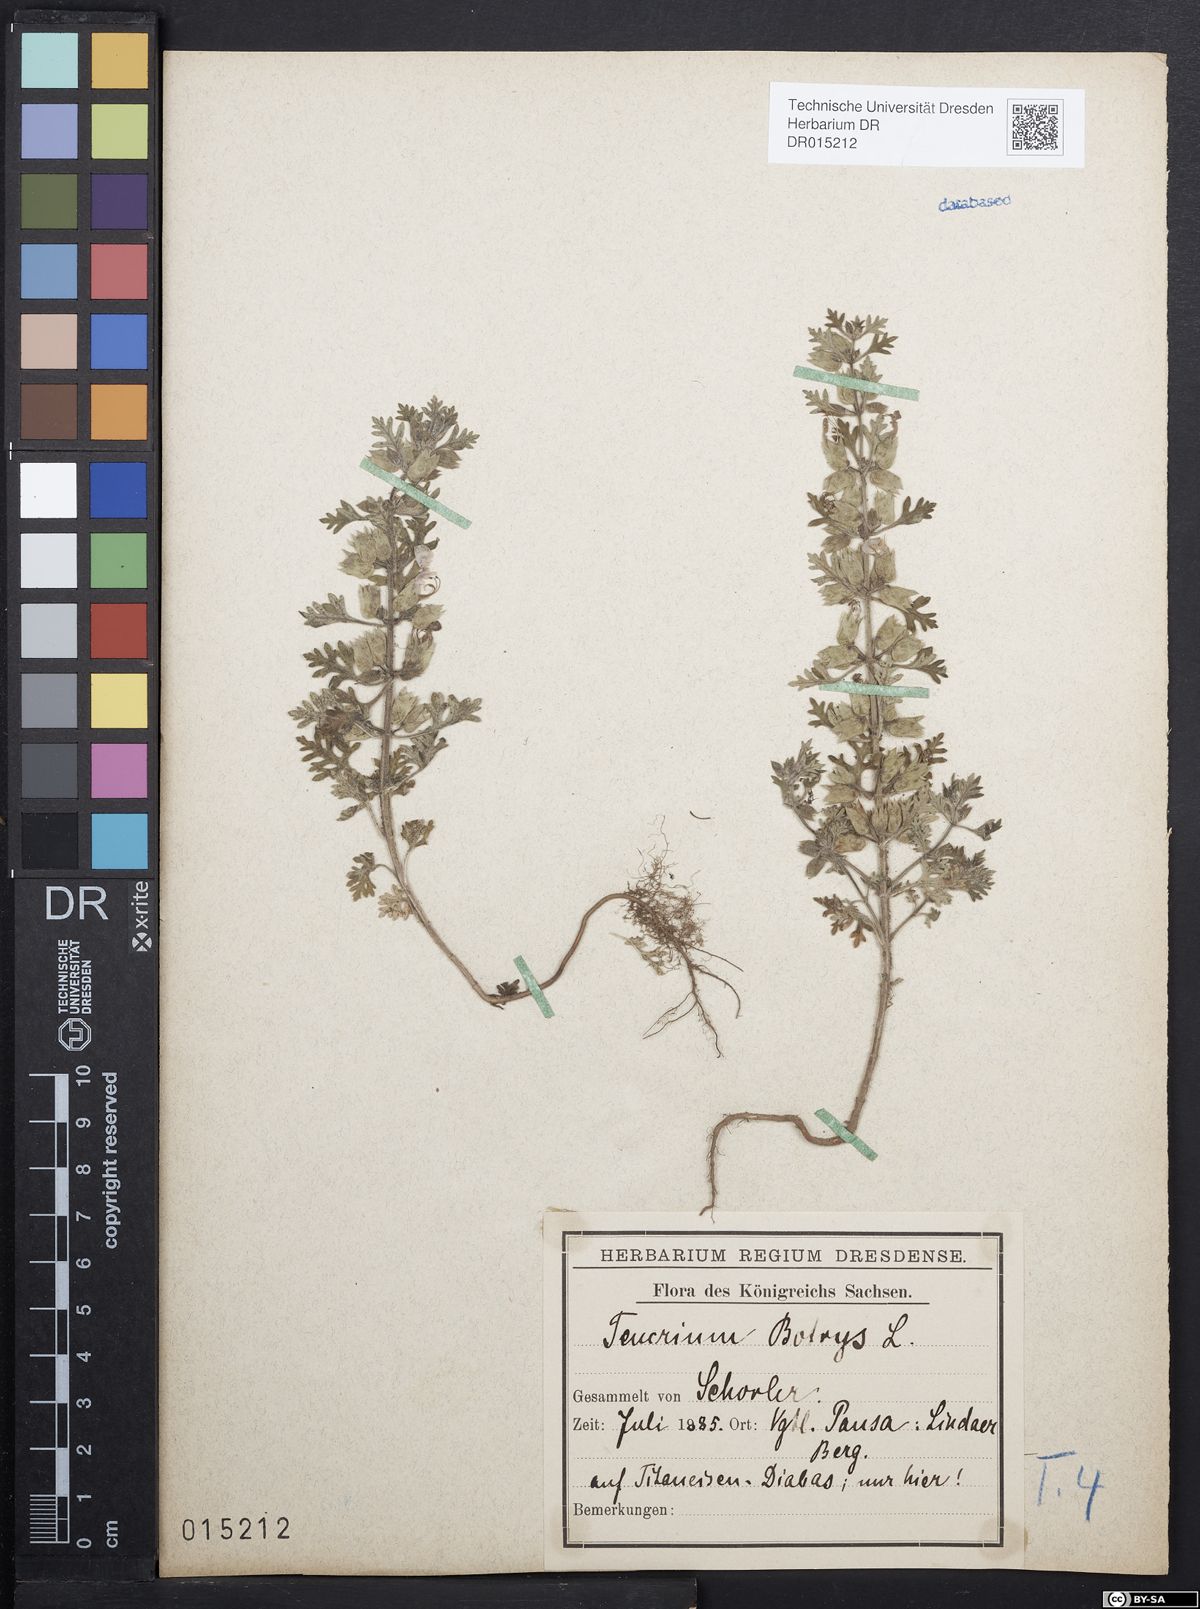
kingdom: Plantae
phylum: Tracheophyta
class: Magnoliopsida
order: Lamiales
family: Lamiaceae
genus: Teucrium
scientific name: Teucrium botrys
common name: Cut-leaved germander
